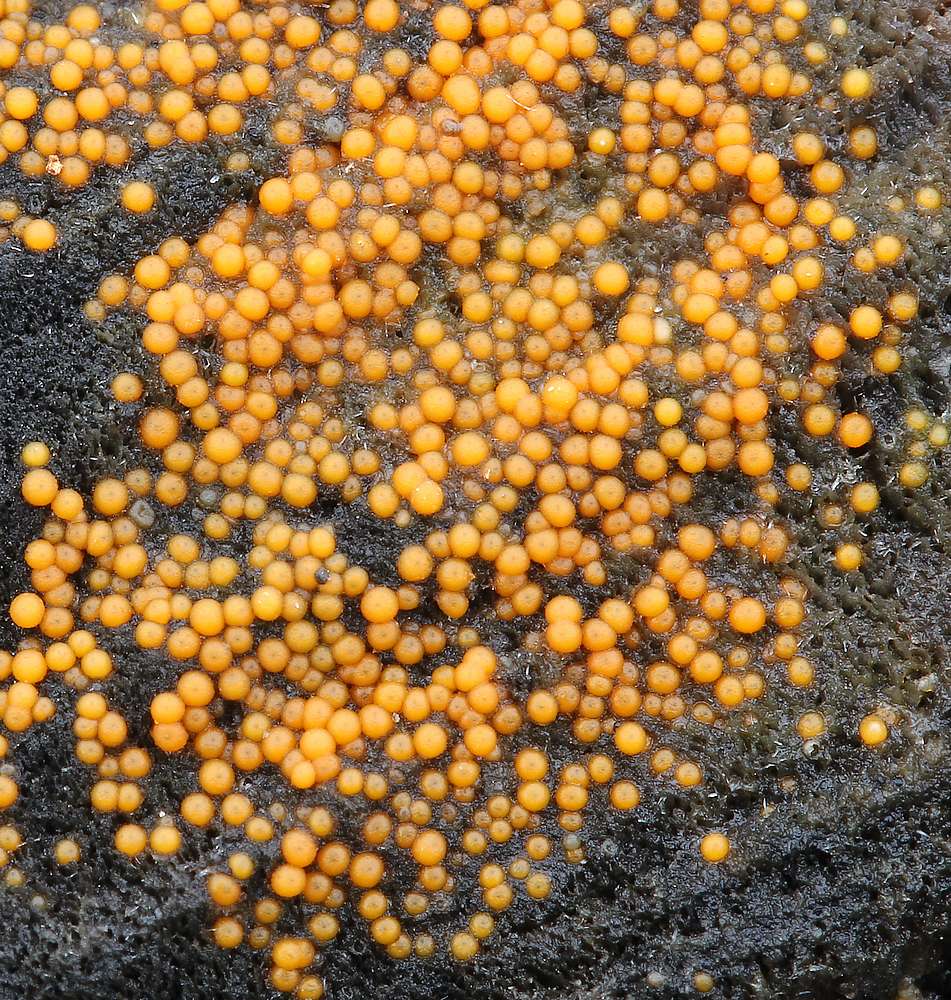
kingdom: Fungi
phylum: Ascomycota
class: Sordariomycetes
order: Hypocreales
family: Nectriaceae
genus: Hydropisphaera
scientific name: Hydropisphaera peziza
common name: skålformet gyldenkerne
